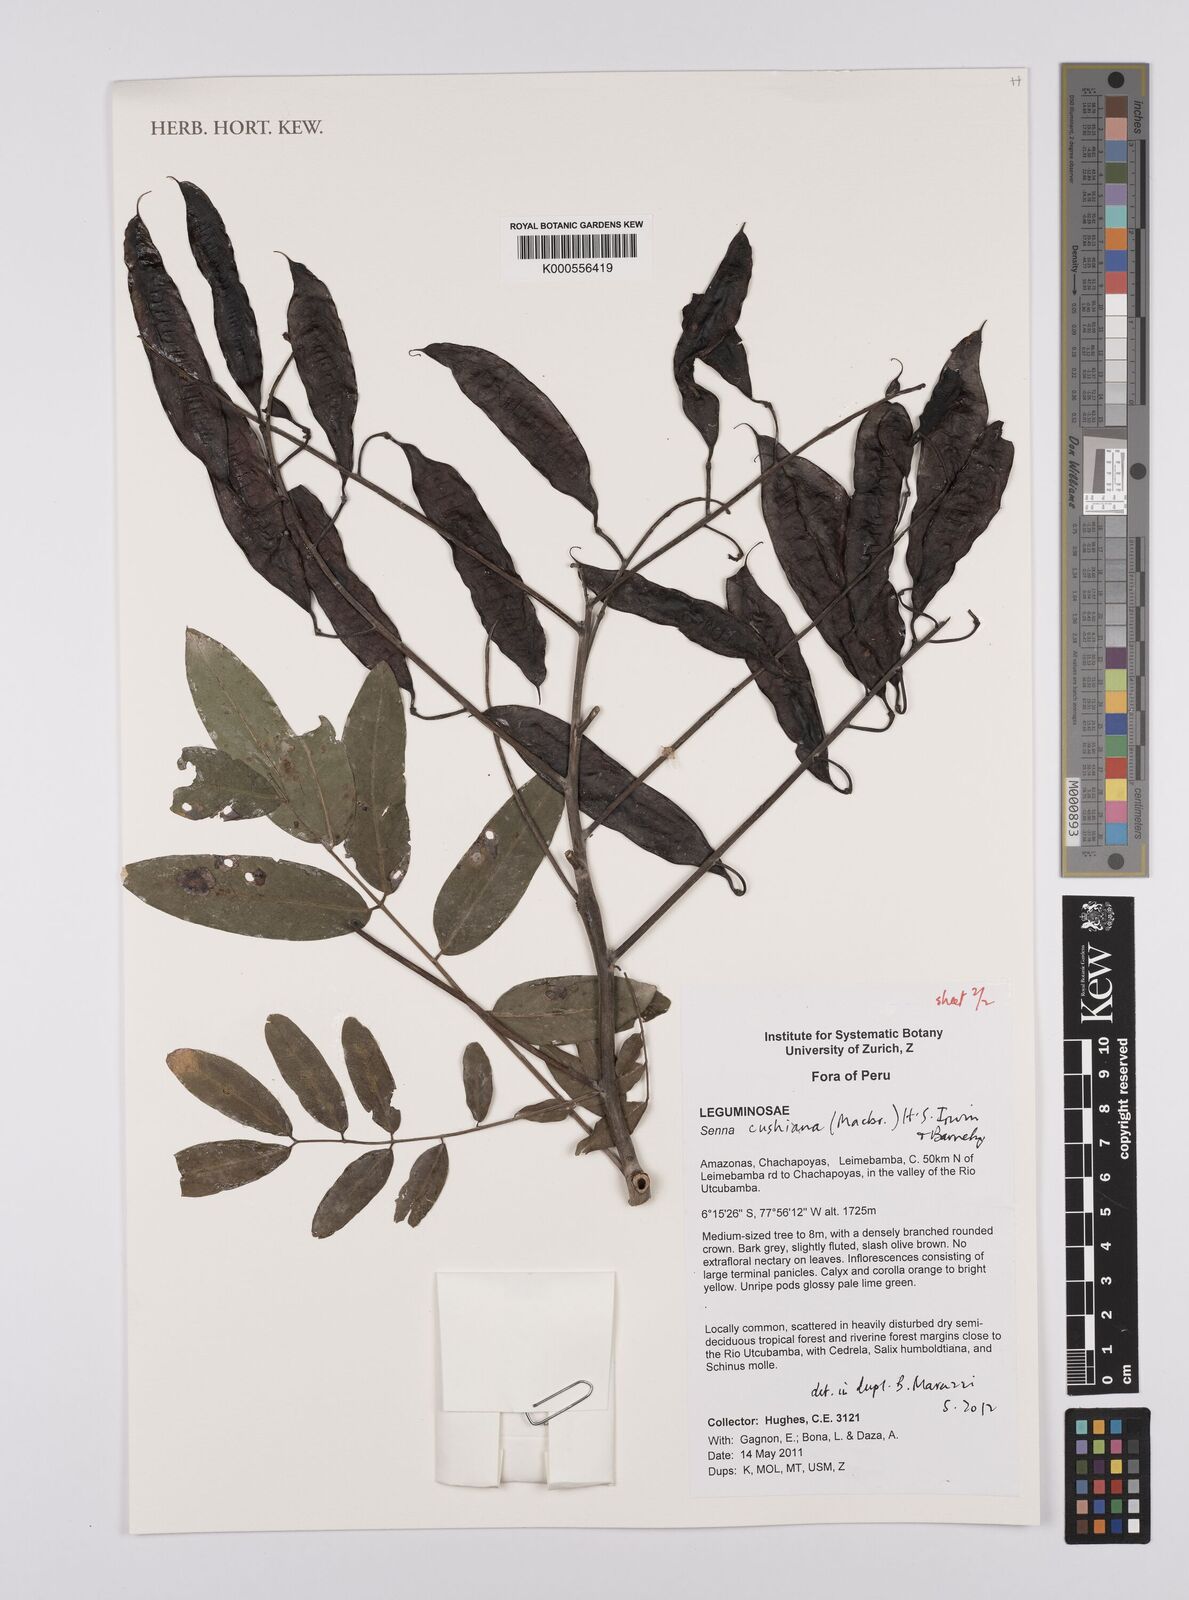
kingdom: Plantae
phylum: Tracheophyta
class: Magnoliopsida
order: Fabales
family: Fabaceae
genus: Senna
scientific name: Senna
